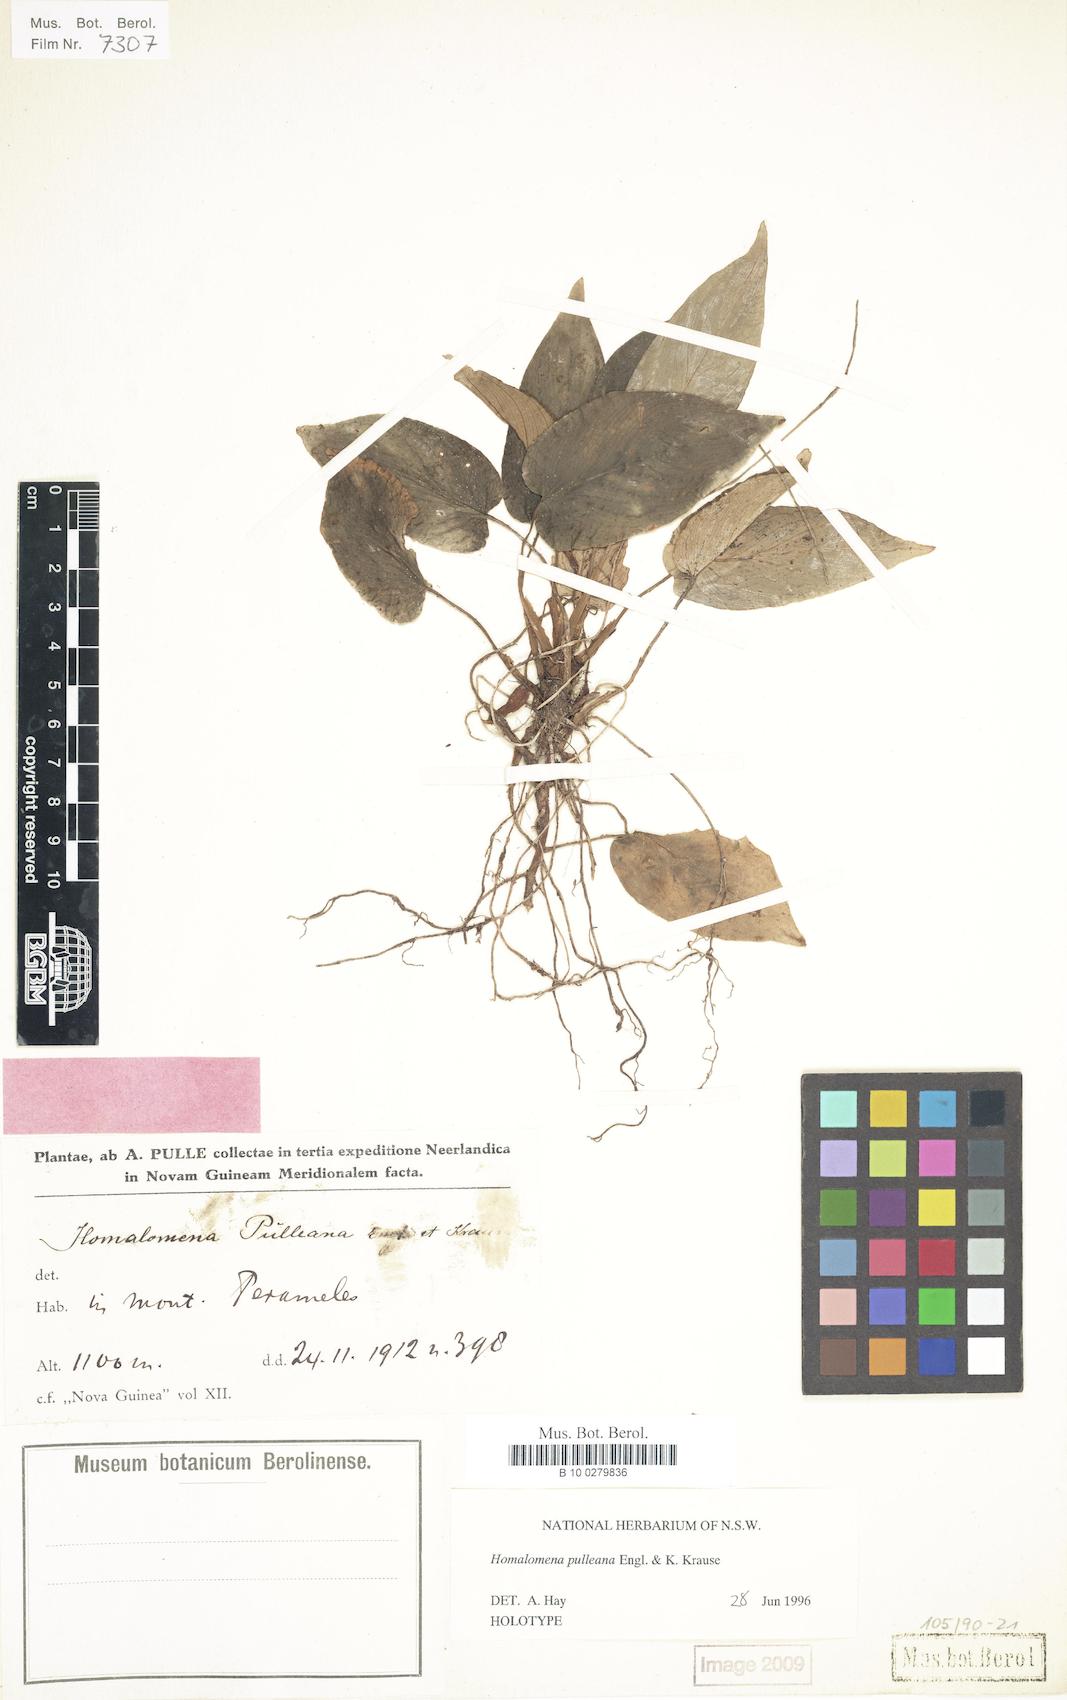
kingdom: Plantae
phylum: Tracheophyta
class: Liliopsida
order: Alismatales
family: Araceae
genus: Homalomena
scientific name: Homalomena pulleana
